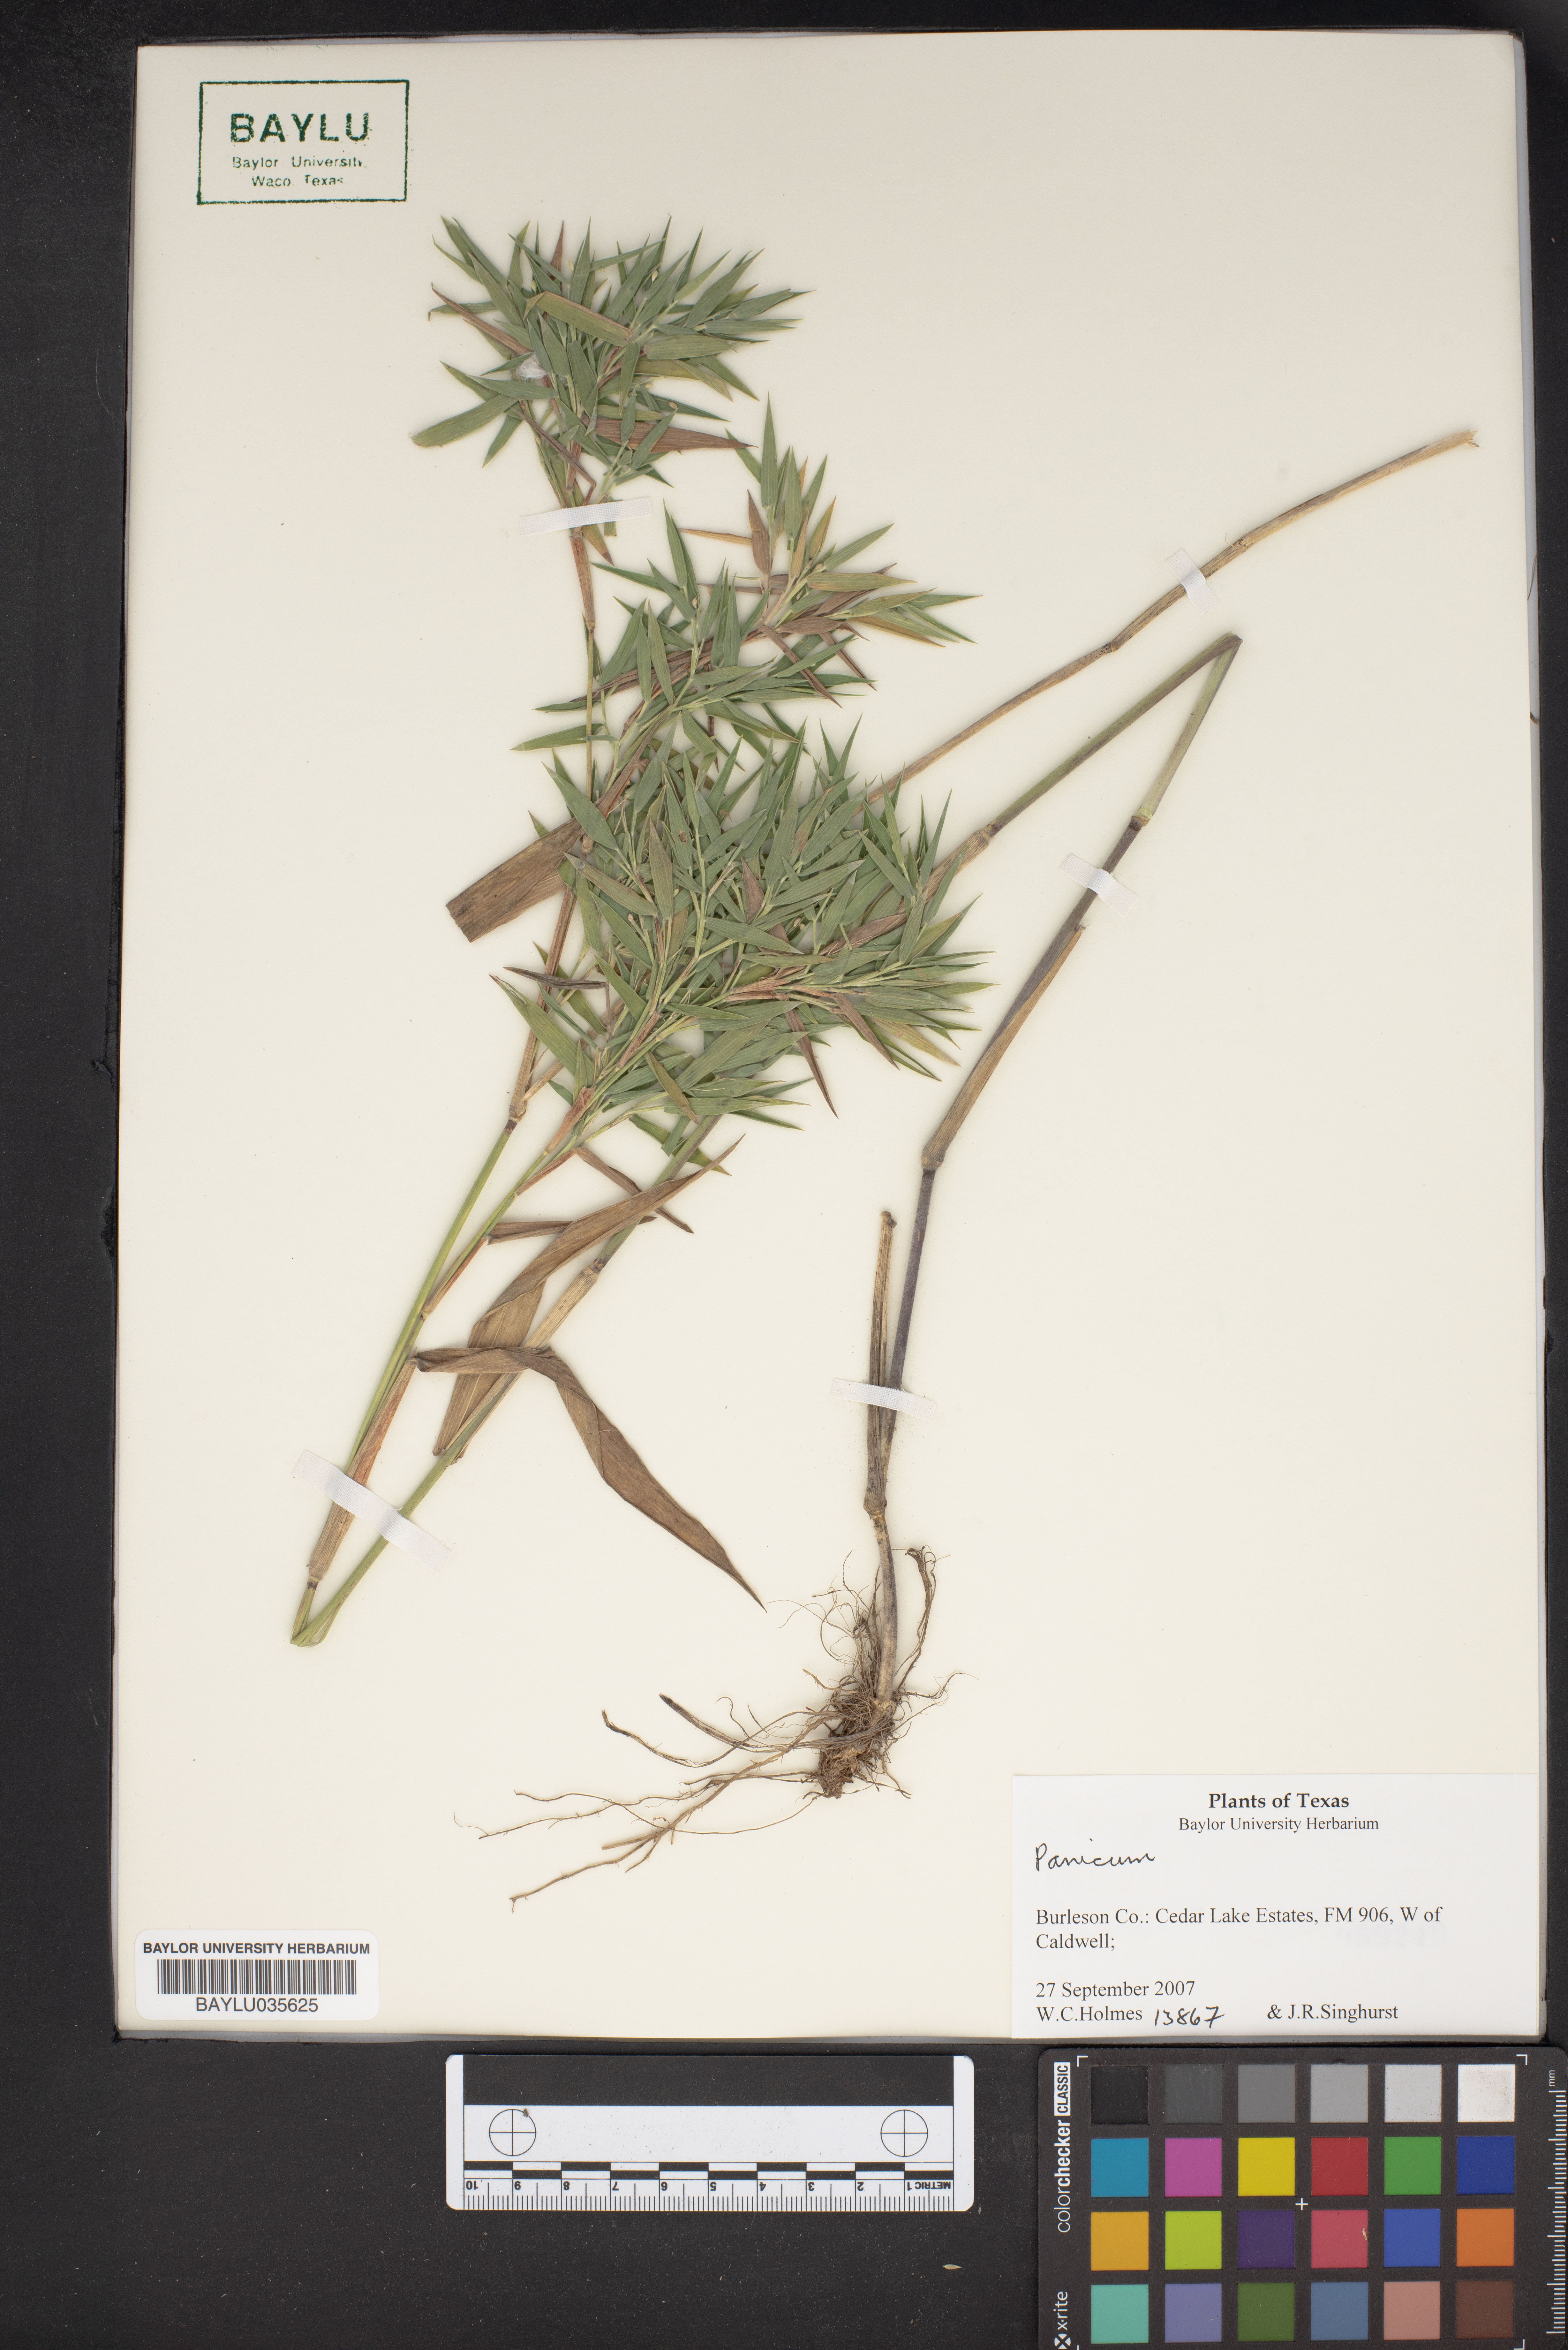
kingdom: Plantae
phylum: Tracheophyta
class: Liliopsida
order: Poales
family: Poaceae
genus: Panicum
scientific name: Panicum
